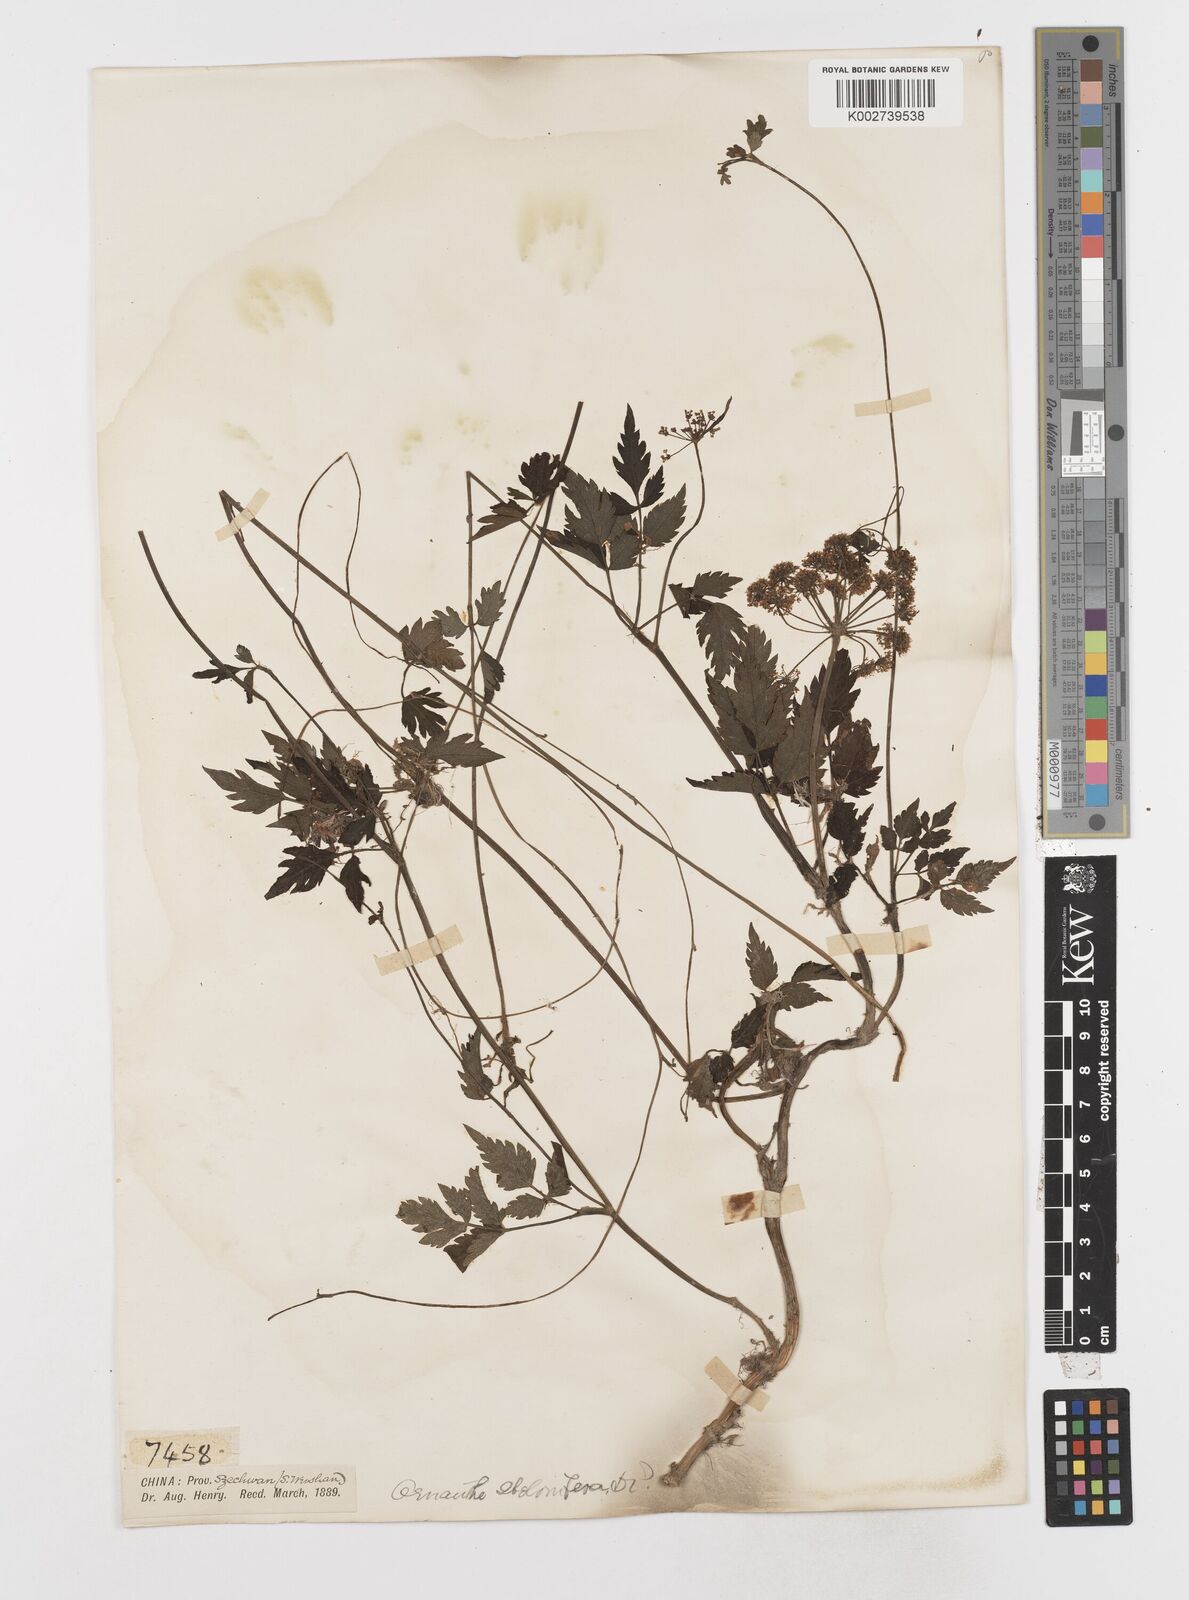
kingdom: Plantae
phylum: Tracheophyta
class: Magnoliopsida
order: Apiales
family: Apiaceae
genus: Oenanthe
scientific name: Oenanthe javanica
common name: Java water-dropwort
